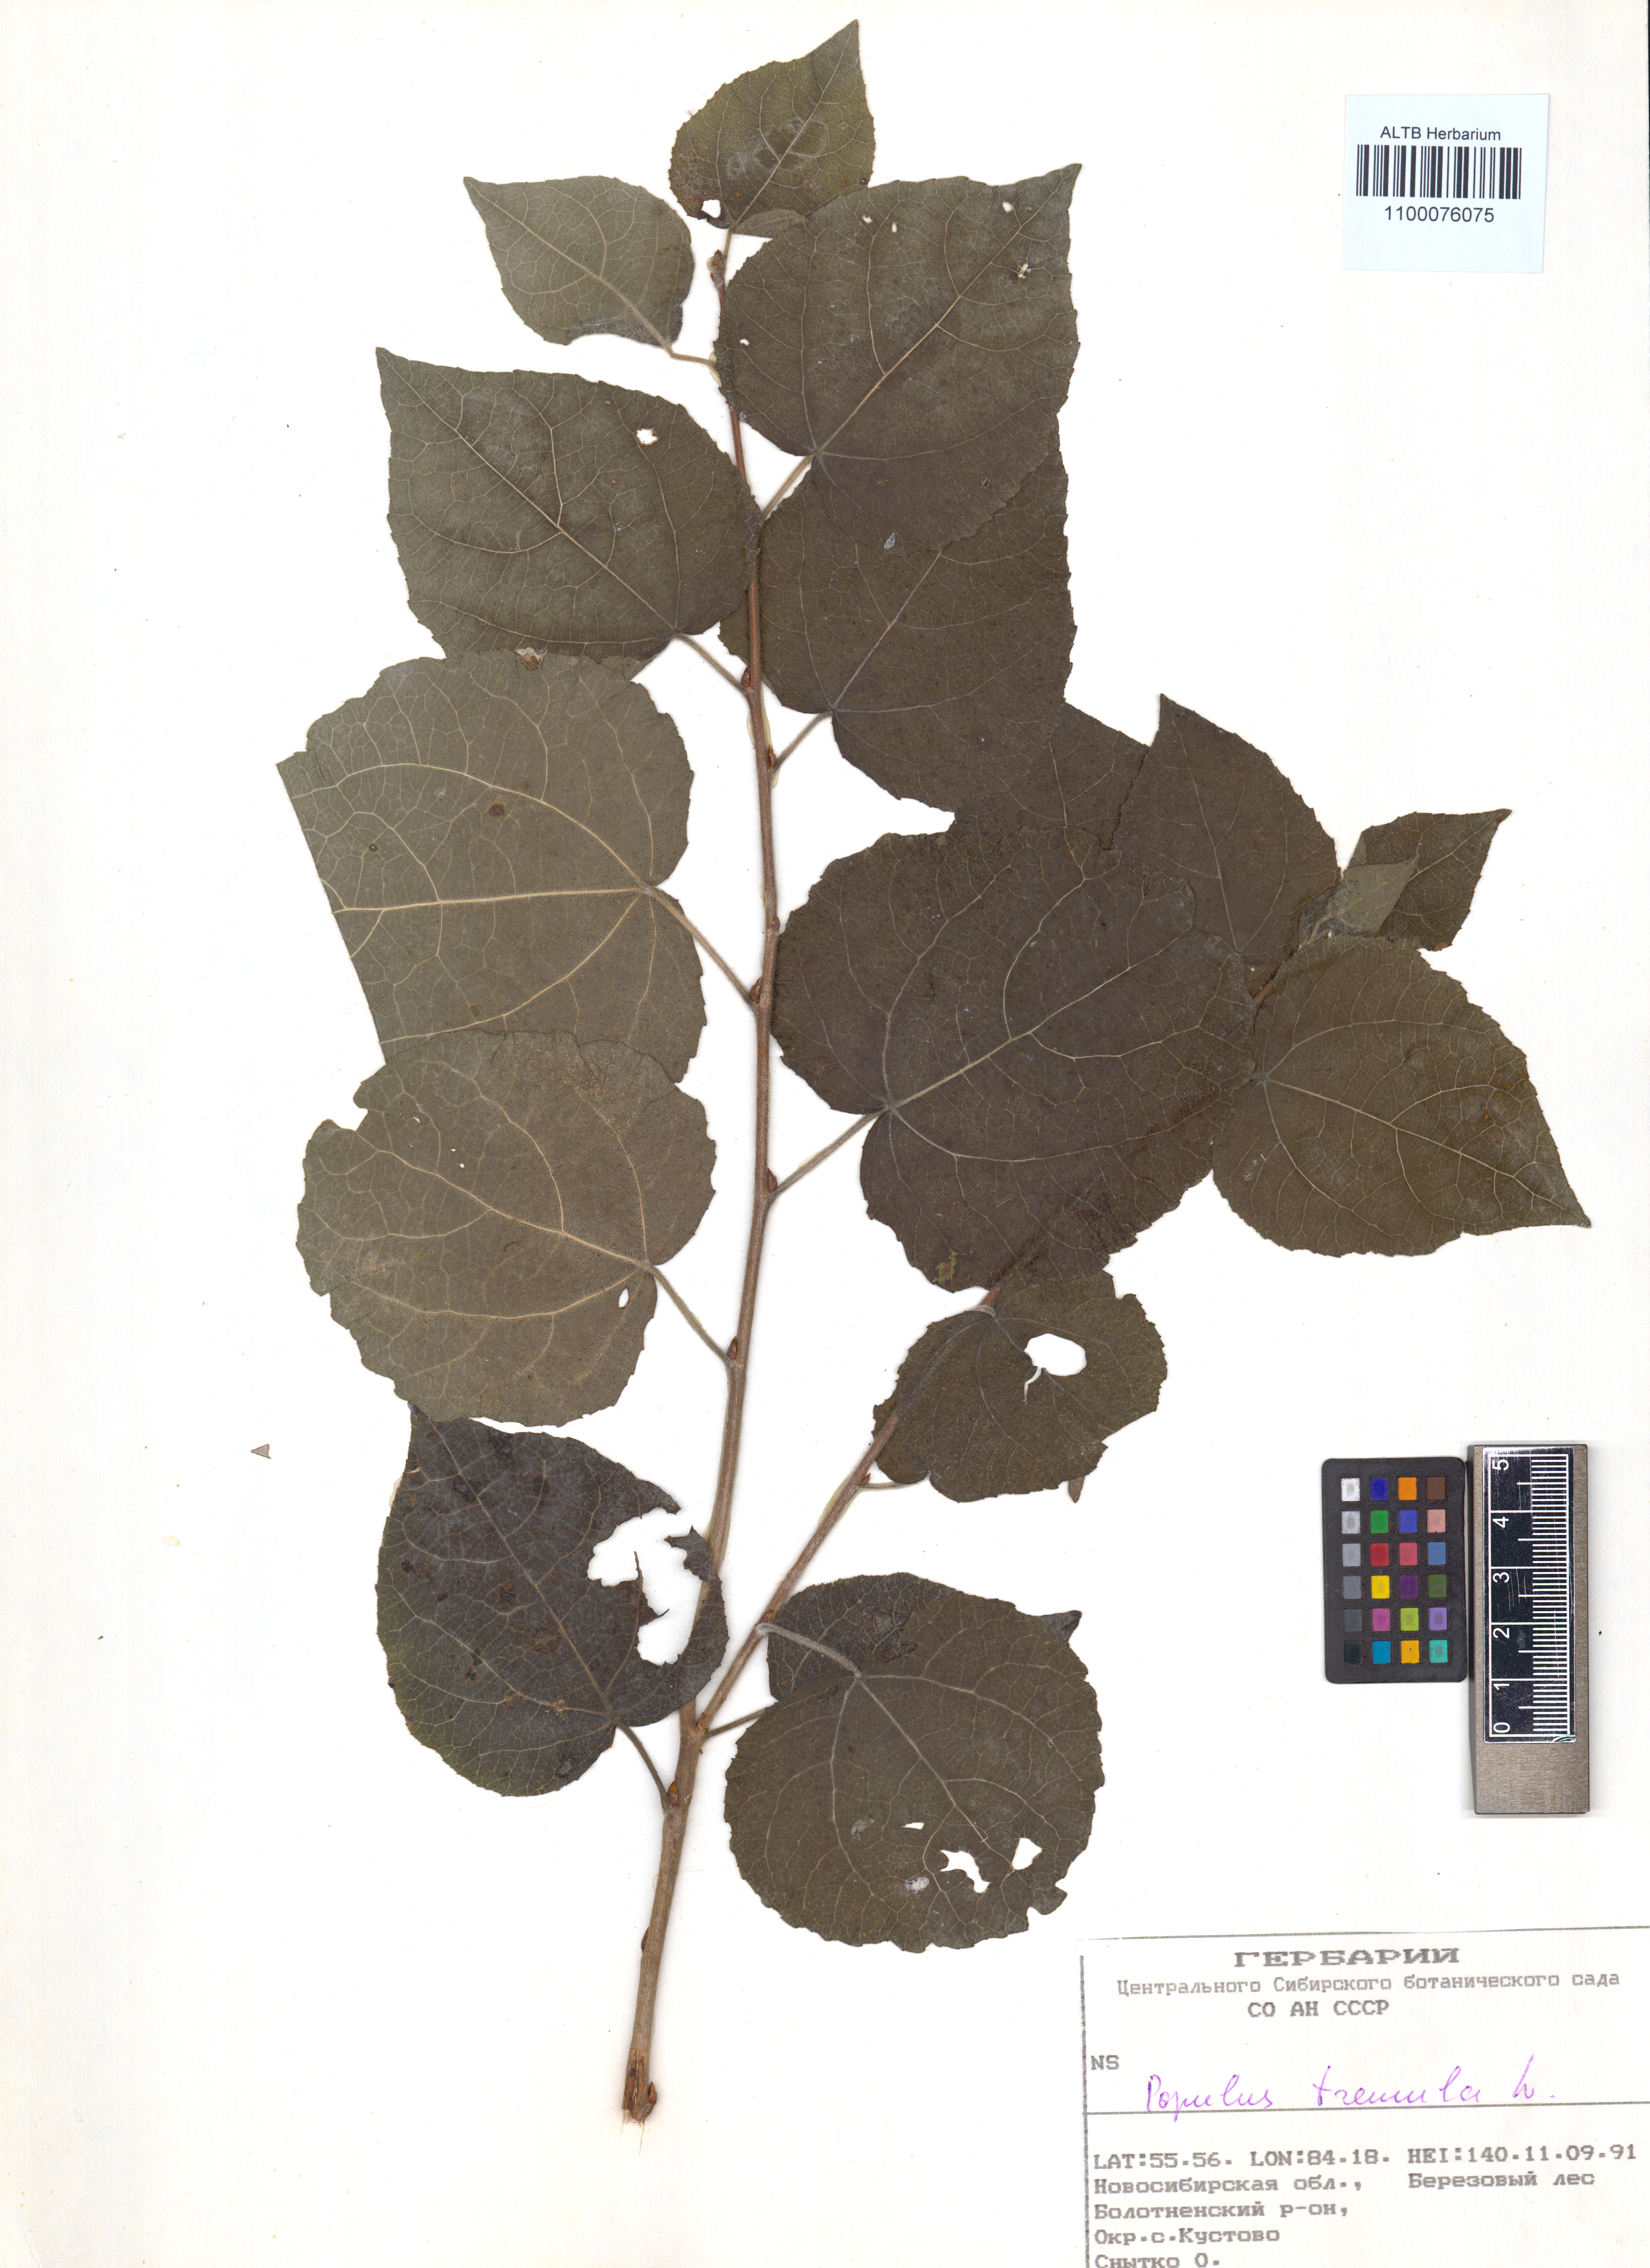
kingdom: Plantae
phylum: Tracheophyta
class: Magnoliopsida
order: Malpighiales
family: Salicaceae
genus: Populus
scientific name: Populus tremula
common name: European aspen
